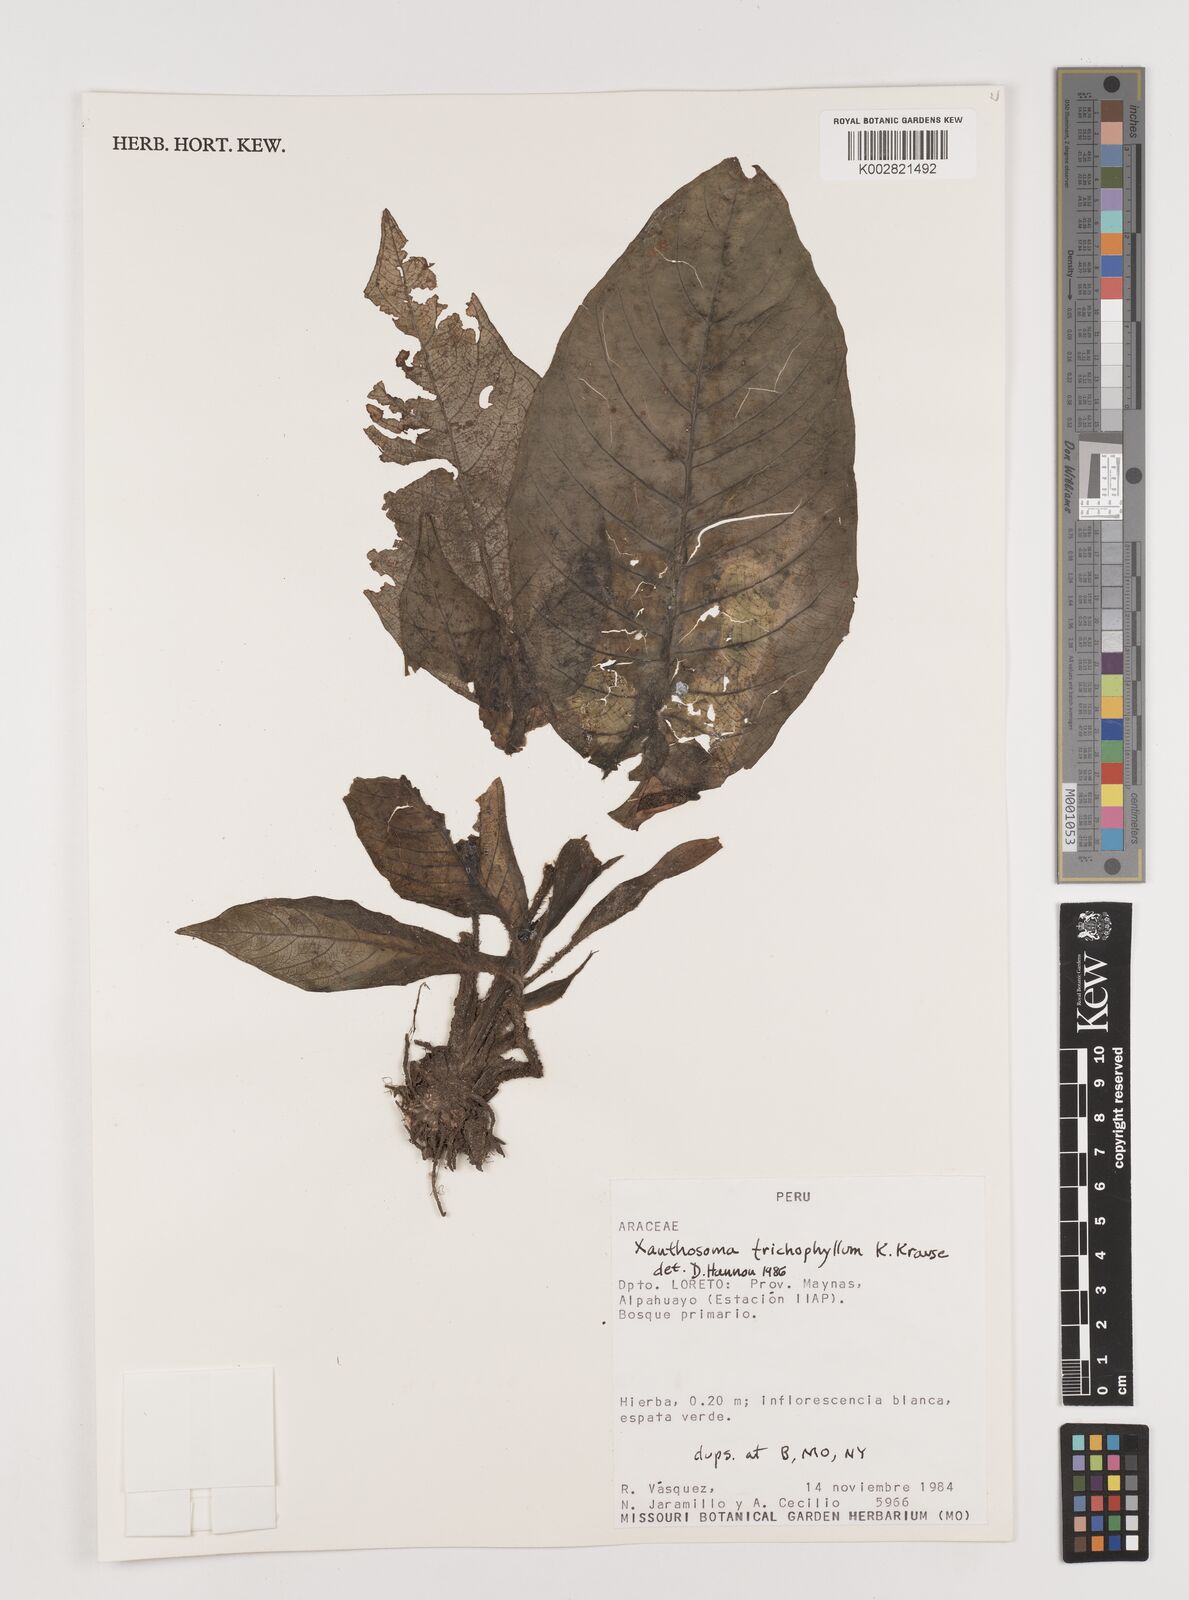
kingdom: Plantae
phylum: Tracheophyta
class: Liliopsida
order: Alismatales
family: Araceae
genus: Xanthosoma
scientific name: Xanthosoma trichophyllum
